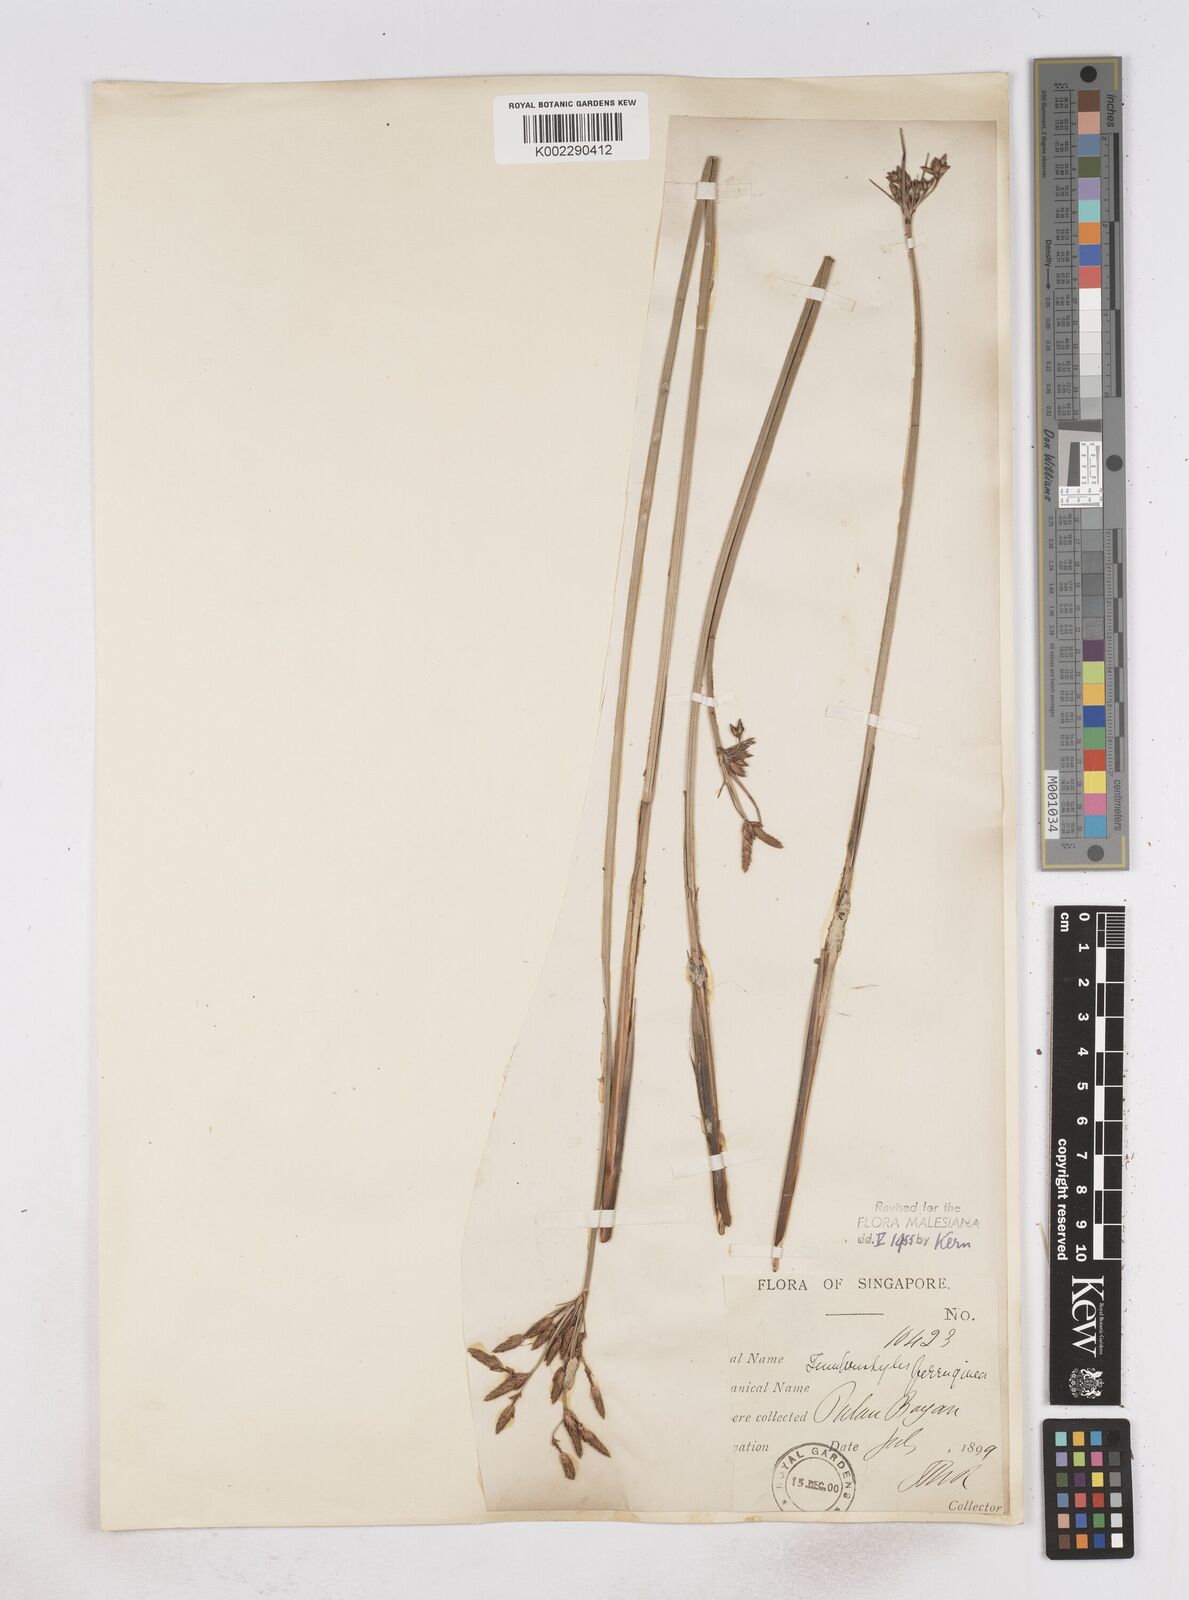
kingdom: Plantae
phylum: Tracheophyta
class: Liliopsida
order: Poales
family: Cyperaceae
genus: Fimbristylis
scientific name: Fimbristylis ferruginea
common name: West indian fimbry
